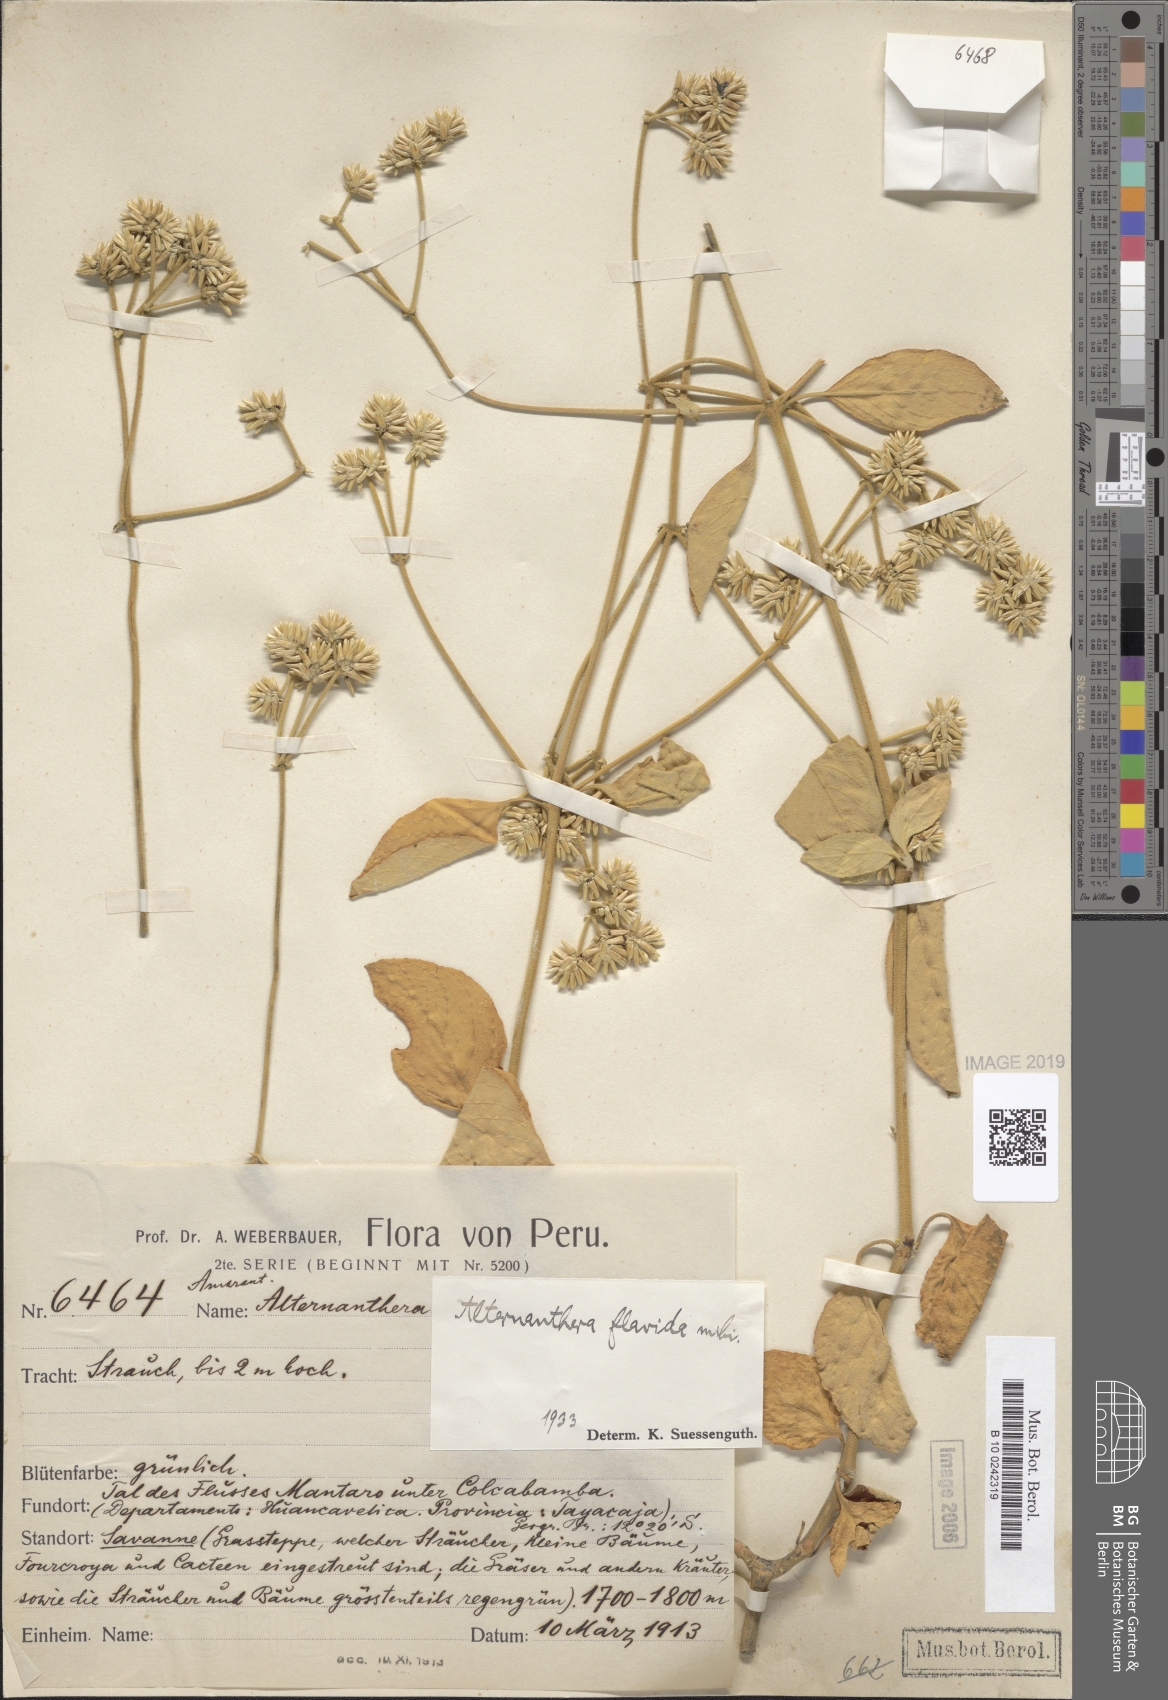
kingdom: Plantae
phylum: Tracheophyta
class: Magnoliopsida
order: Caryophyllales
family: Amaranthaceae
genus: Alternanthera
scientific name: Alternanthera flavida
